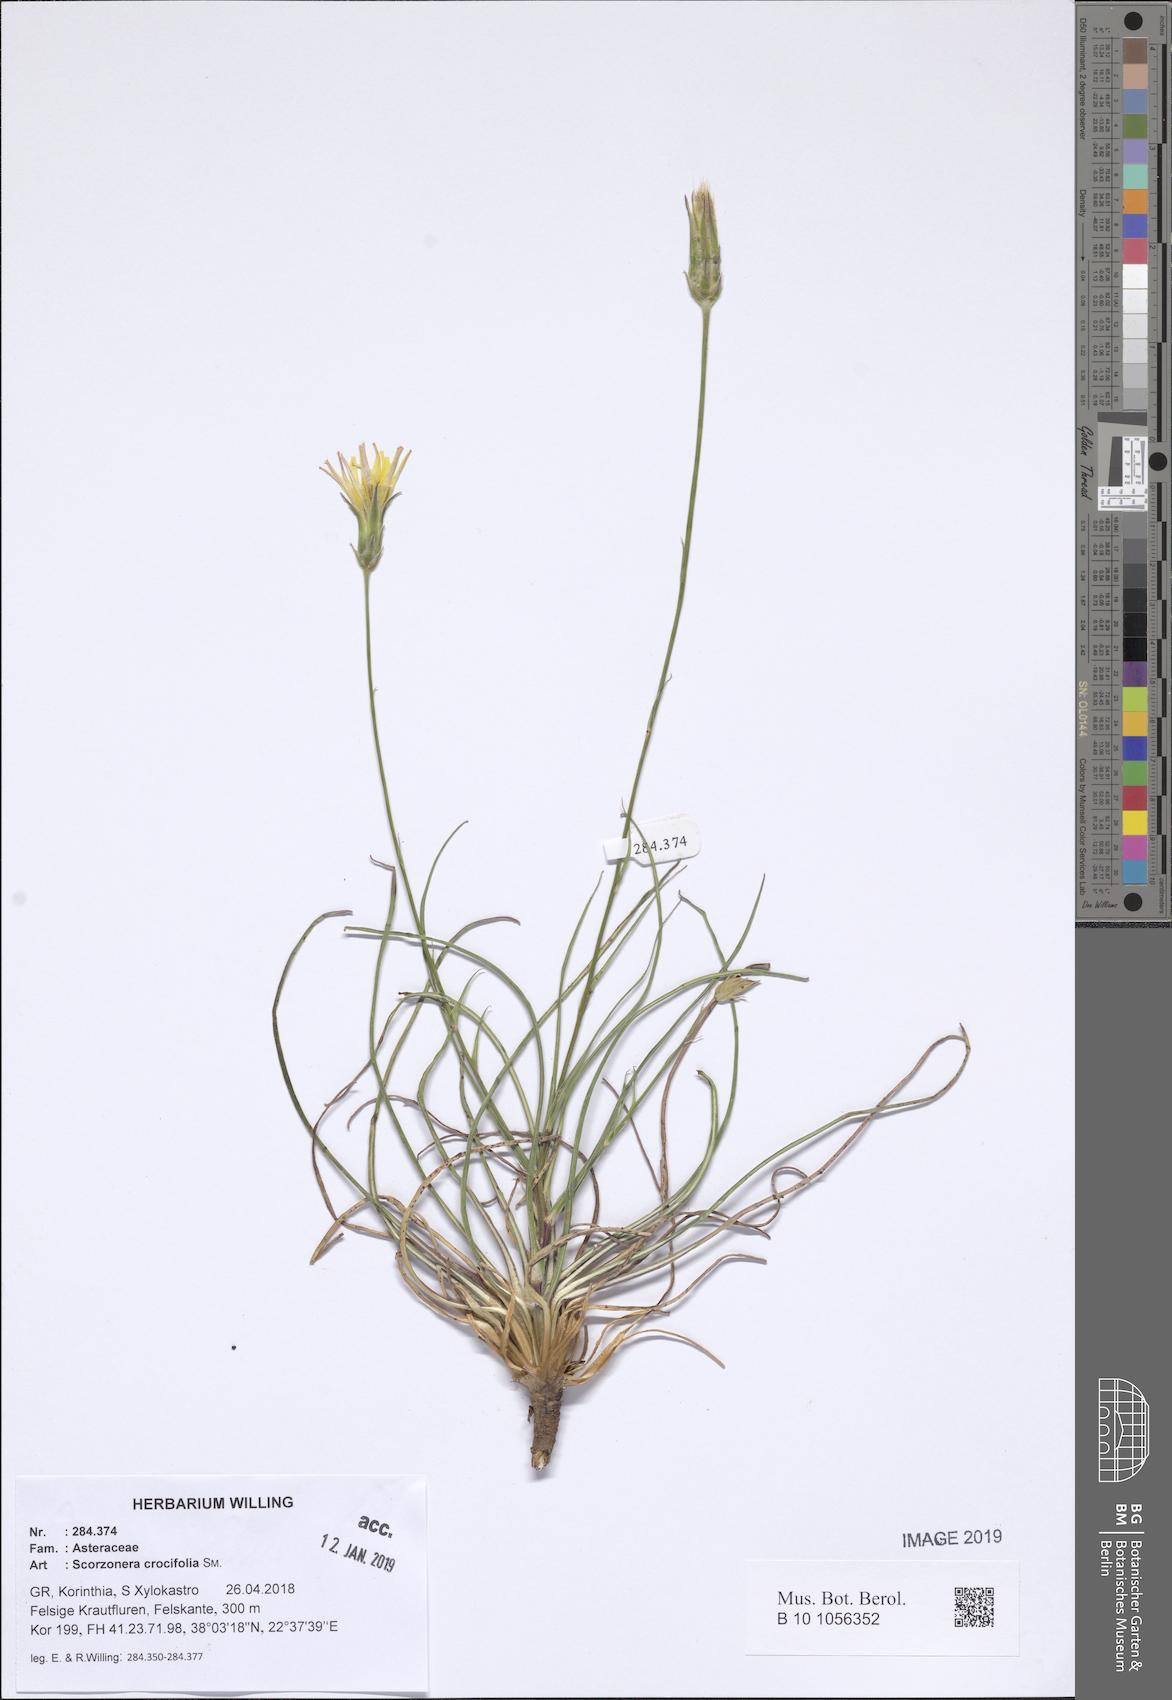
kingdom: Plantae
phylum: Tracheophyta
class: Magnoliopsida
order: Asterales
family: Asteraceae
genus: Pseudopodospermum
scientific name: Pseudopodospermum crocifolium
